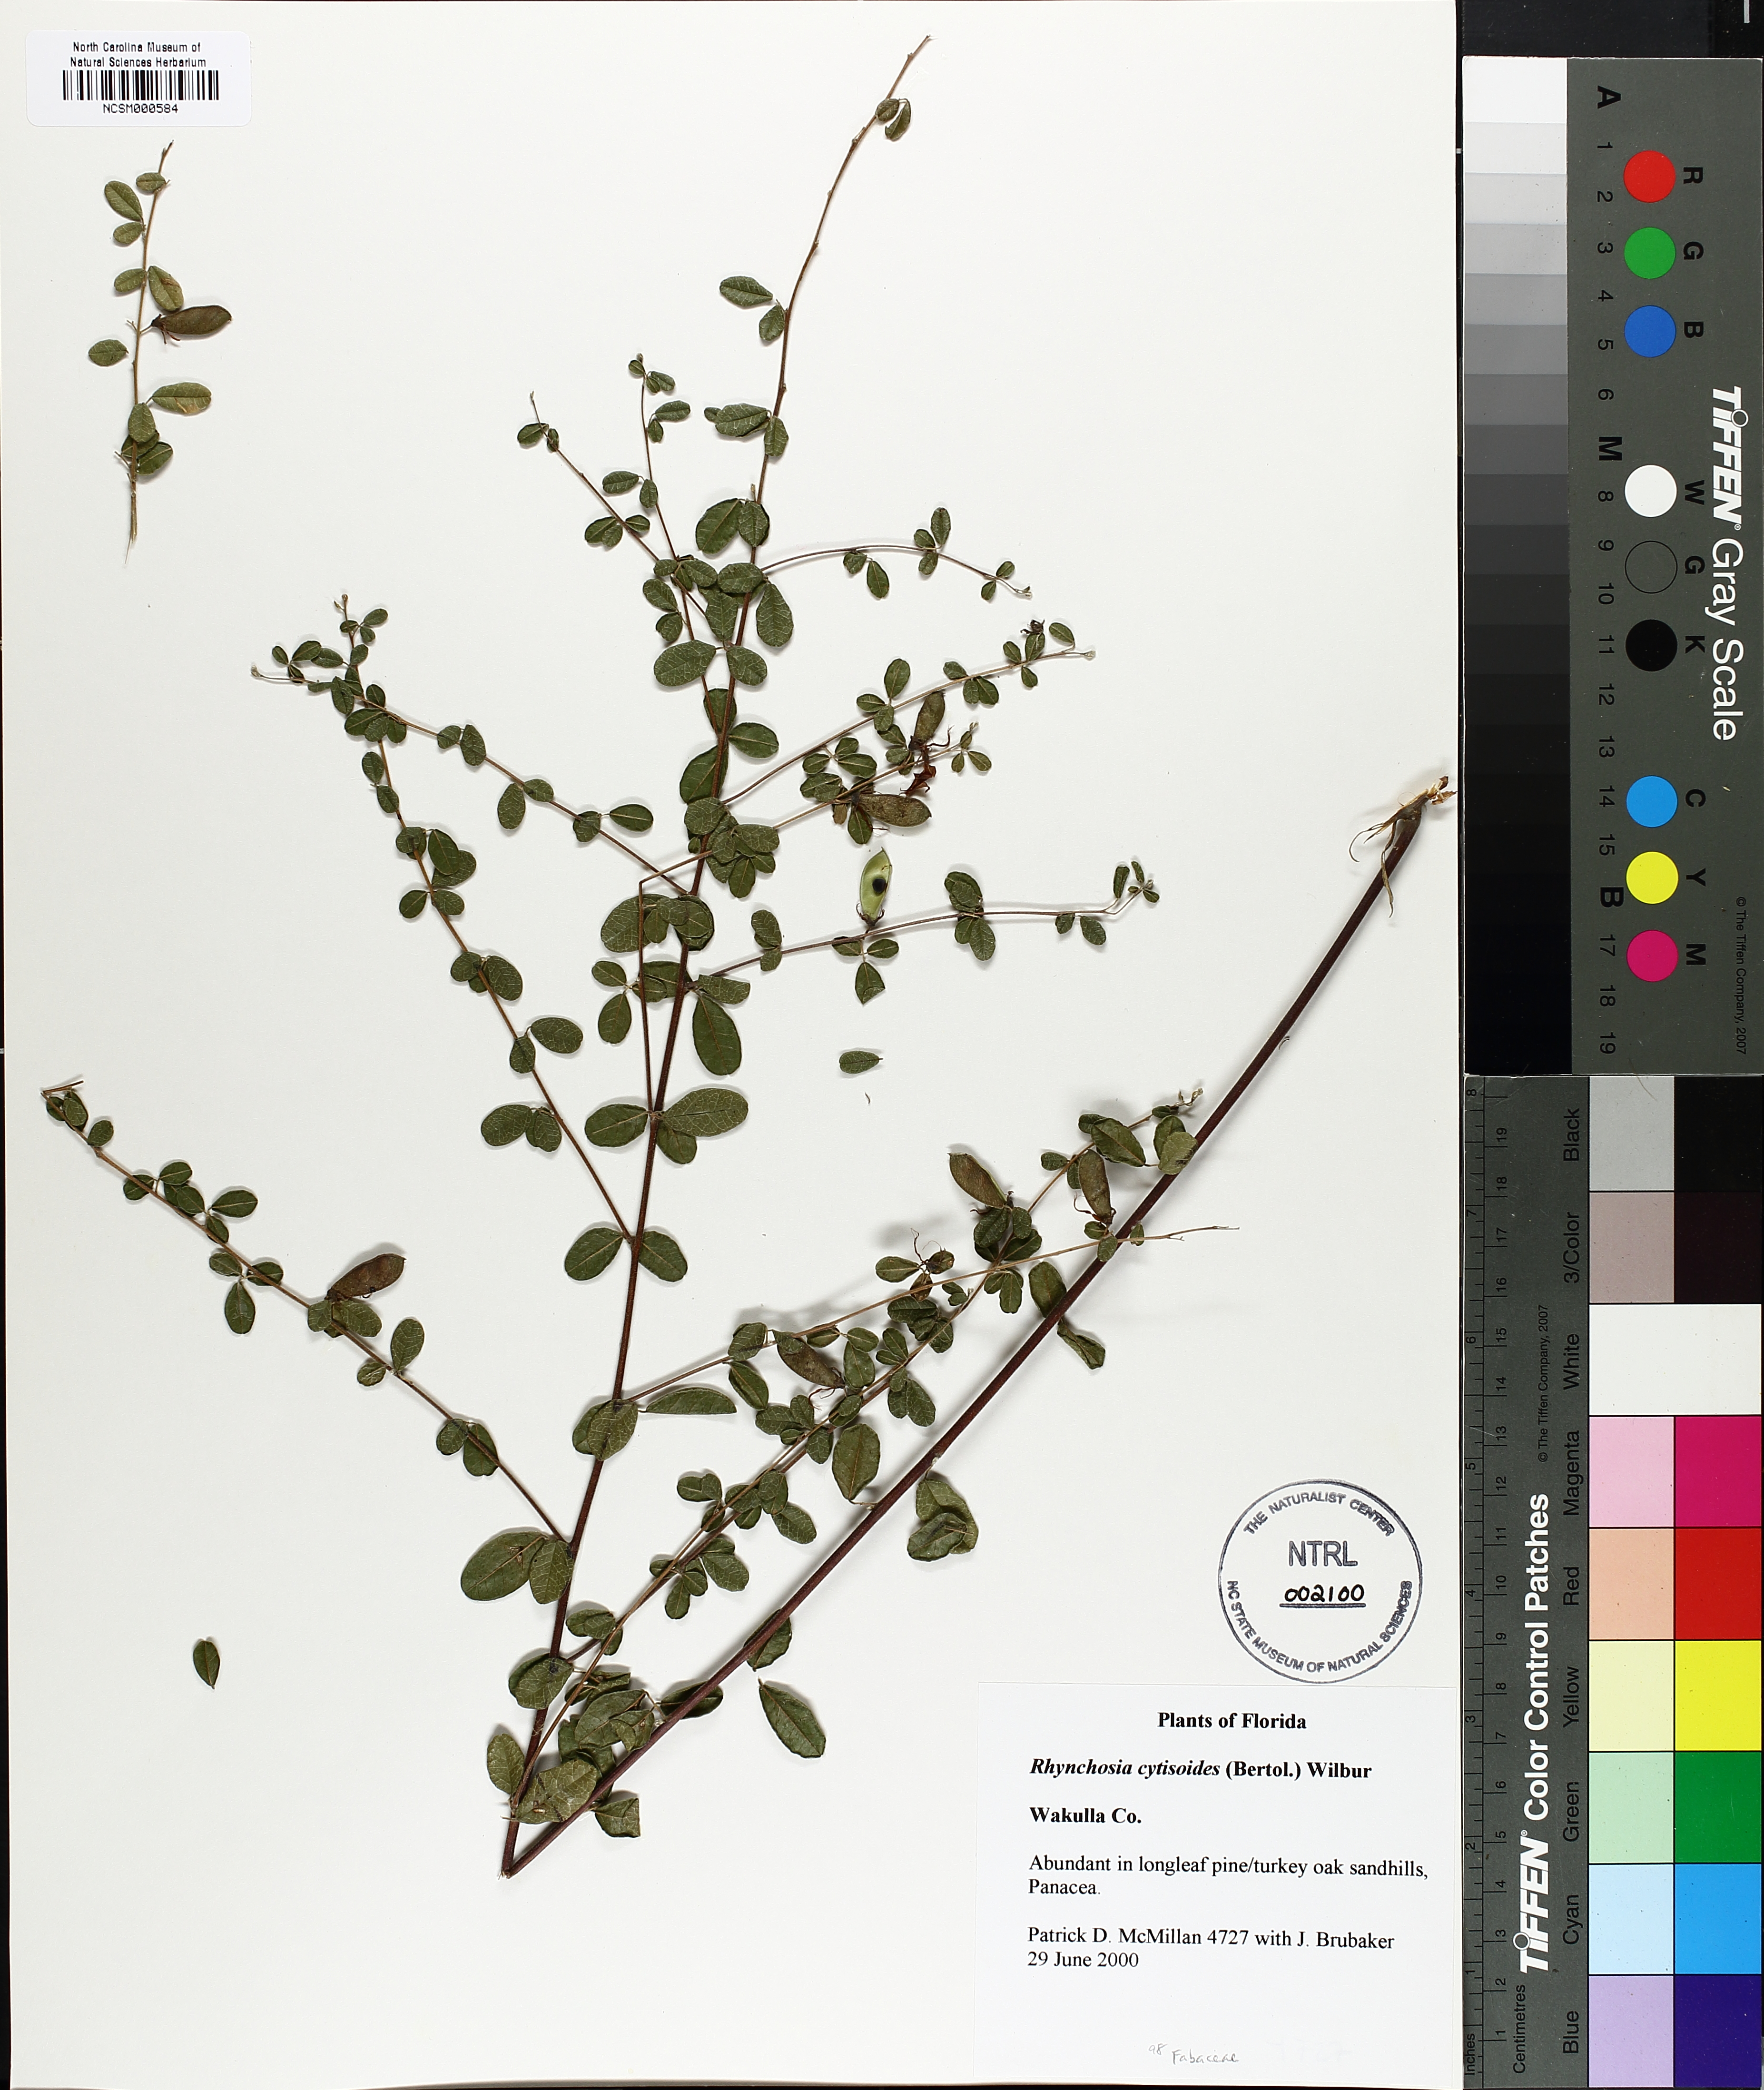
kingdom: Plantae
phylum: Tracheophyta
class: Magnoliopsida
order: Fabales
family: Fabaceae
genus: Rhynchosia
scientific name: Rhynchosia cytisoides
